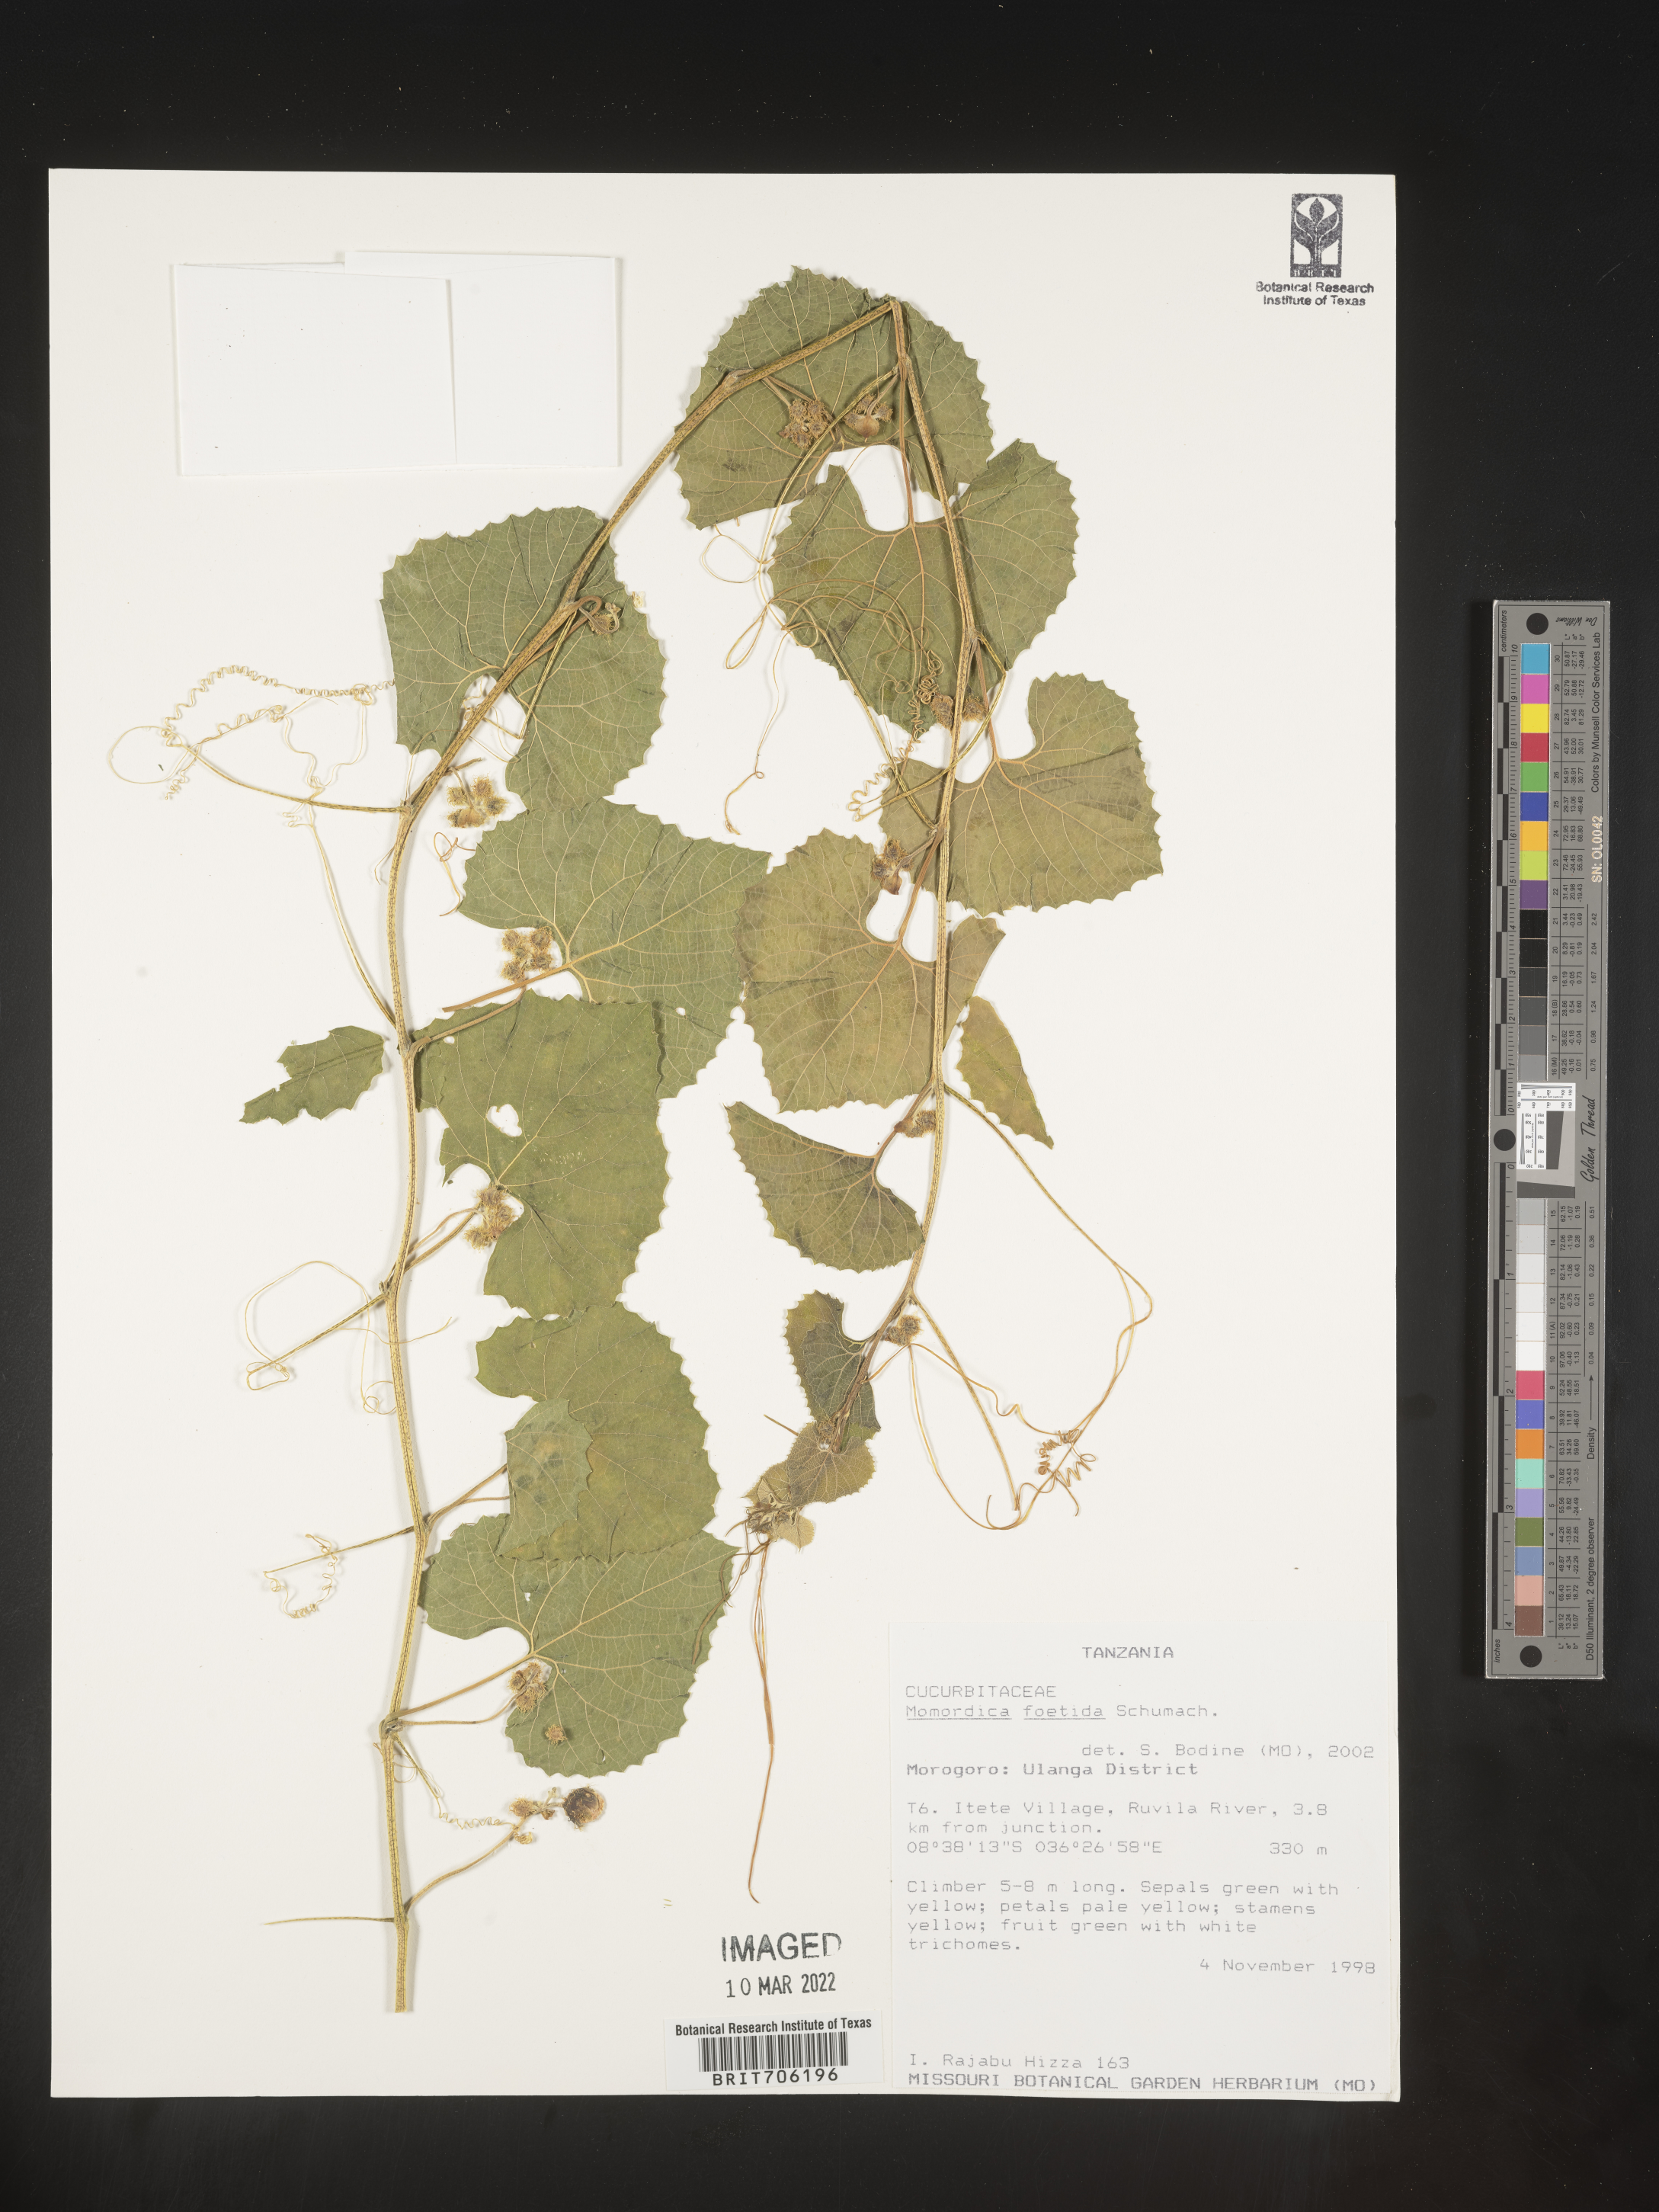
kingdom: Plantae
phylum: Tracheophyta
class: Magnoliopsida
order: Cucurbitales
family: Cucurbitaceae
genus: Momordica
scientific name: Momordica
